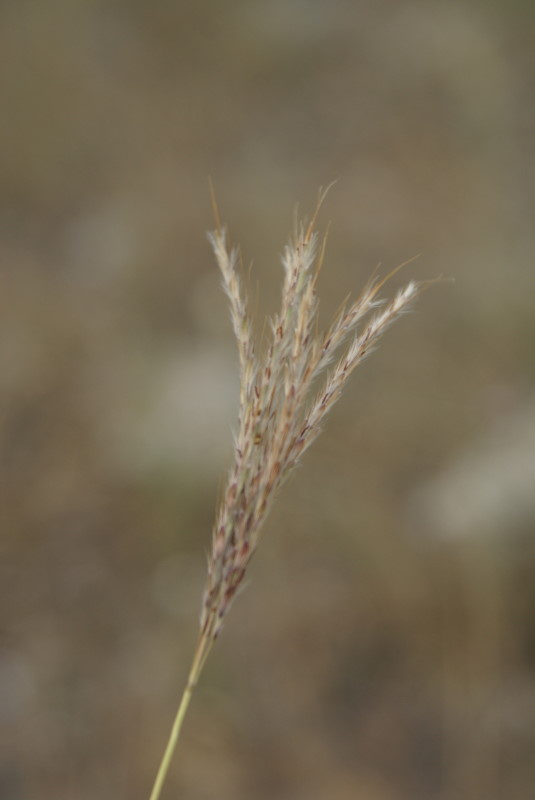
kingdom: Plantae
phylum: Tracheophyta
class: Liliopsida
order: Poales
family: Poaceae
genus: Cynodon
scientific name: Cynodon dactylon
